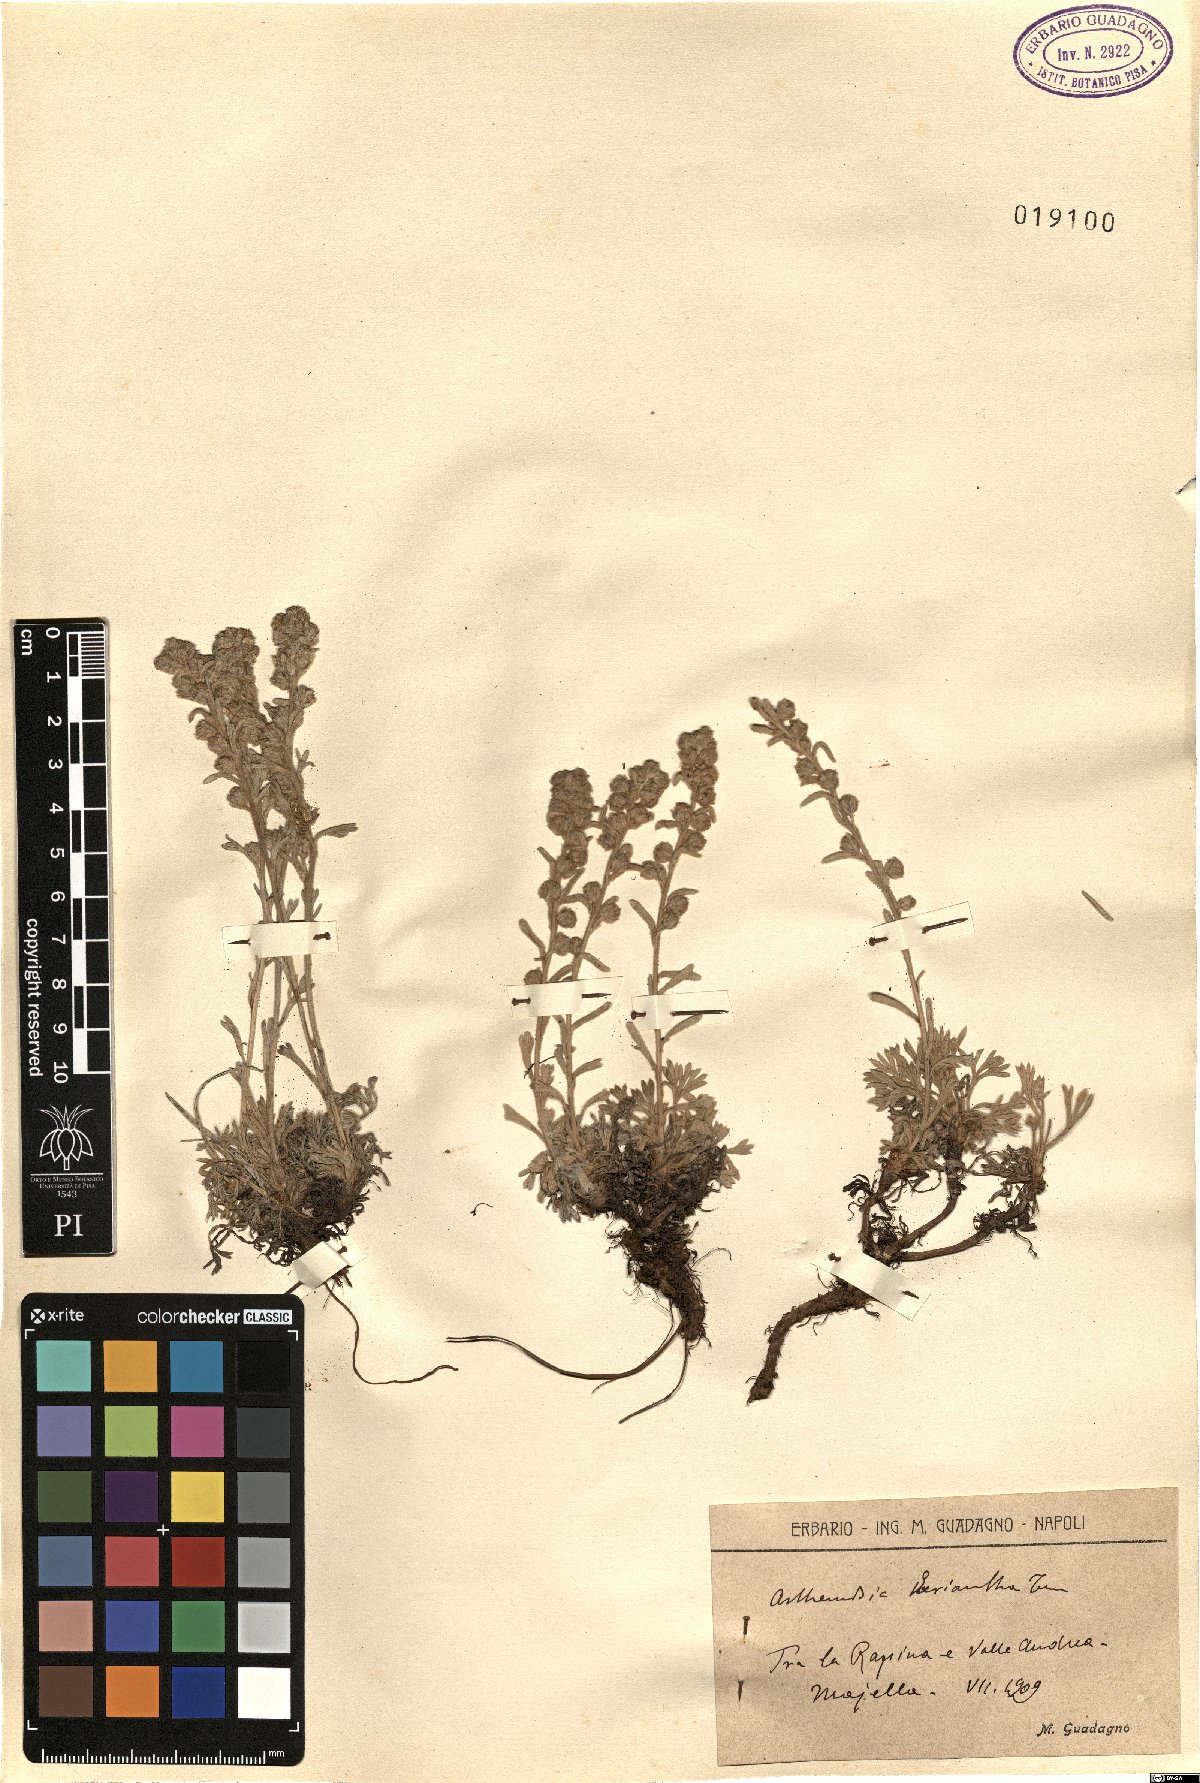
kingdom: Plantae
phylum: Tracheophyta
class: Magnoliopsida
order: Asterales
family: Asteraceae
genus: Artemisia
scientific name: Artemisia eriantha
